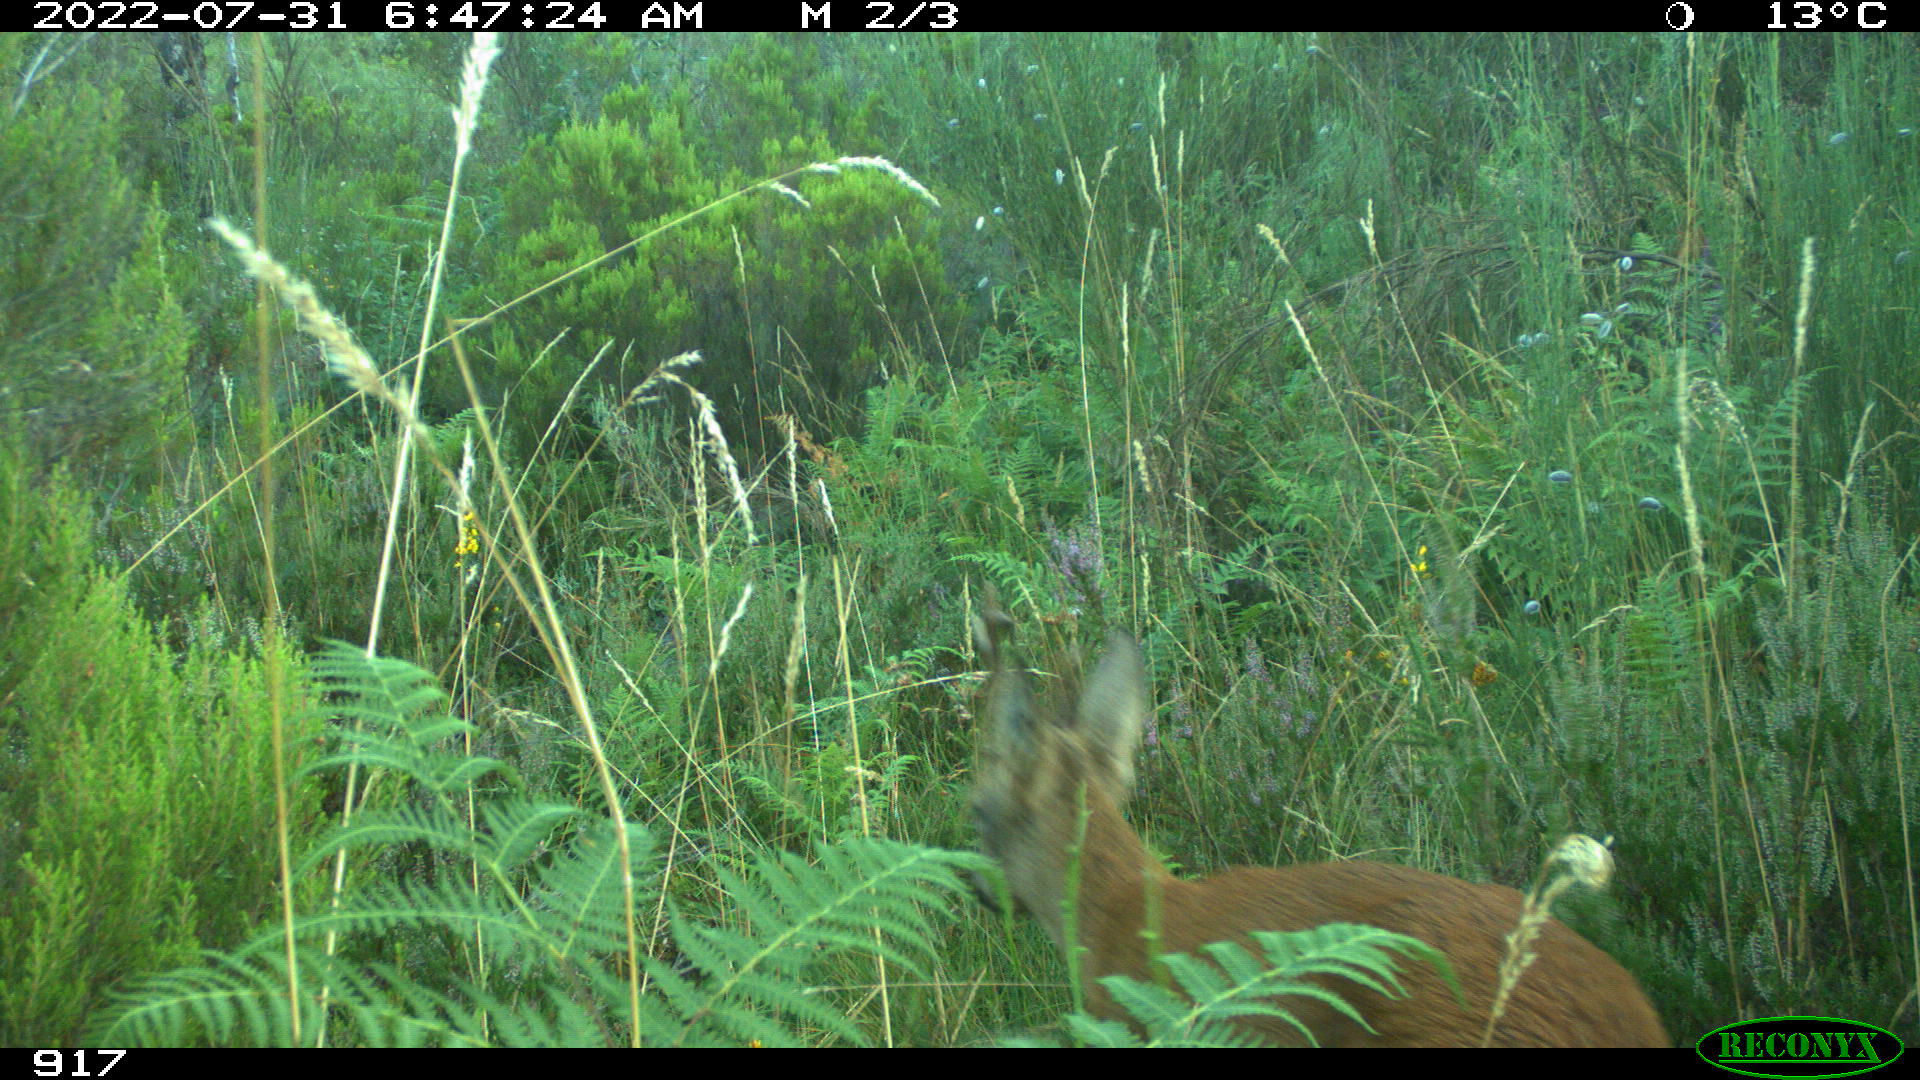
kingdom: Animalia
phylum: Chordata
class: Mammalia
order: Artiodactyla
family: Cervidae
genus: Capreolus
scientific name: Capreolus capreolus
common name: Western roe deer
